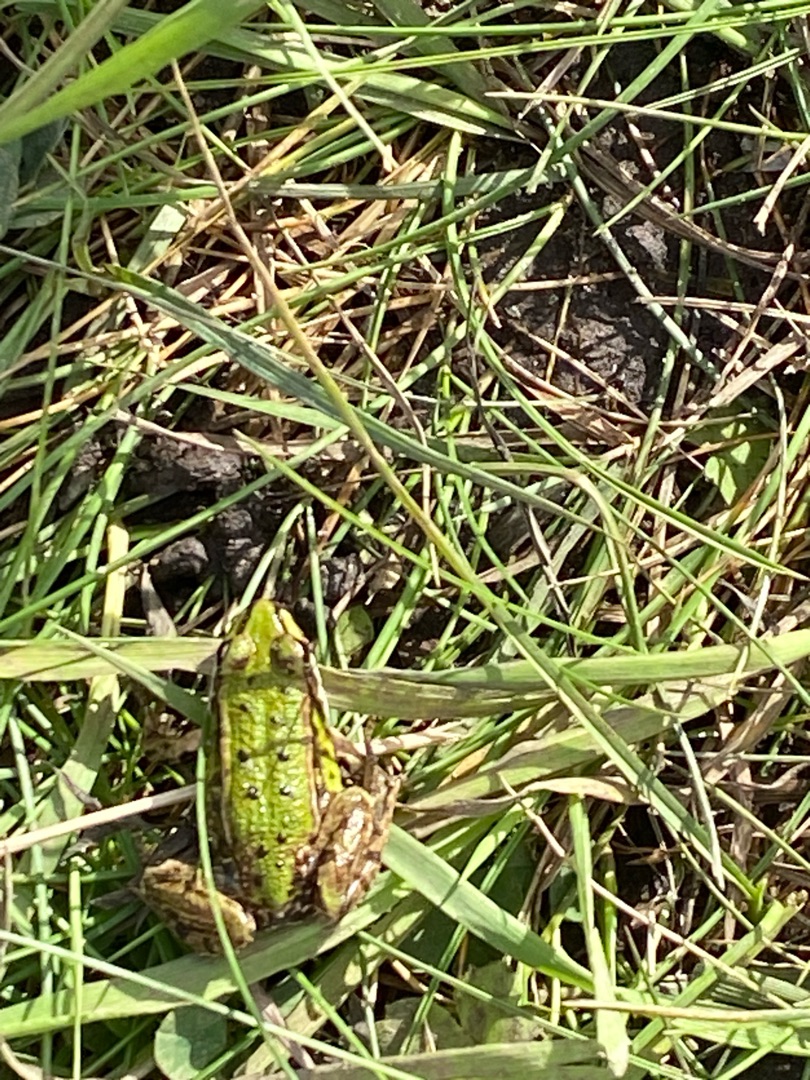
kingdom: Animalia
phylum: Chordata
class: Amphibia
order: Anura
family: Ranidae
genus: Pelophylax
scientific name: Pelophylax lessonae
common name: Grøn frø
